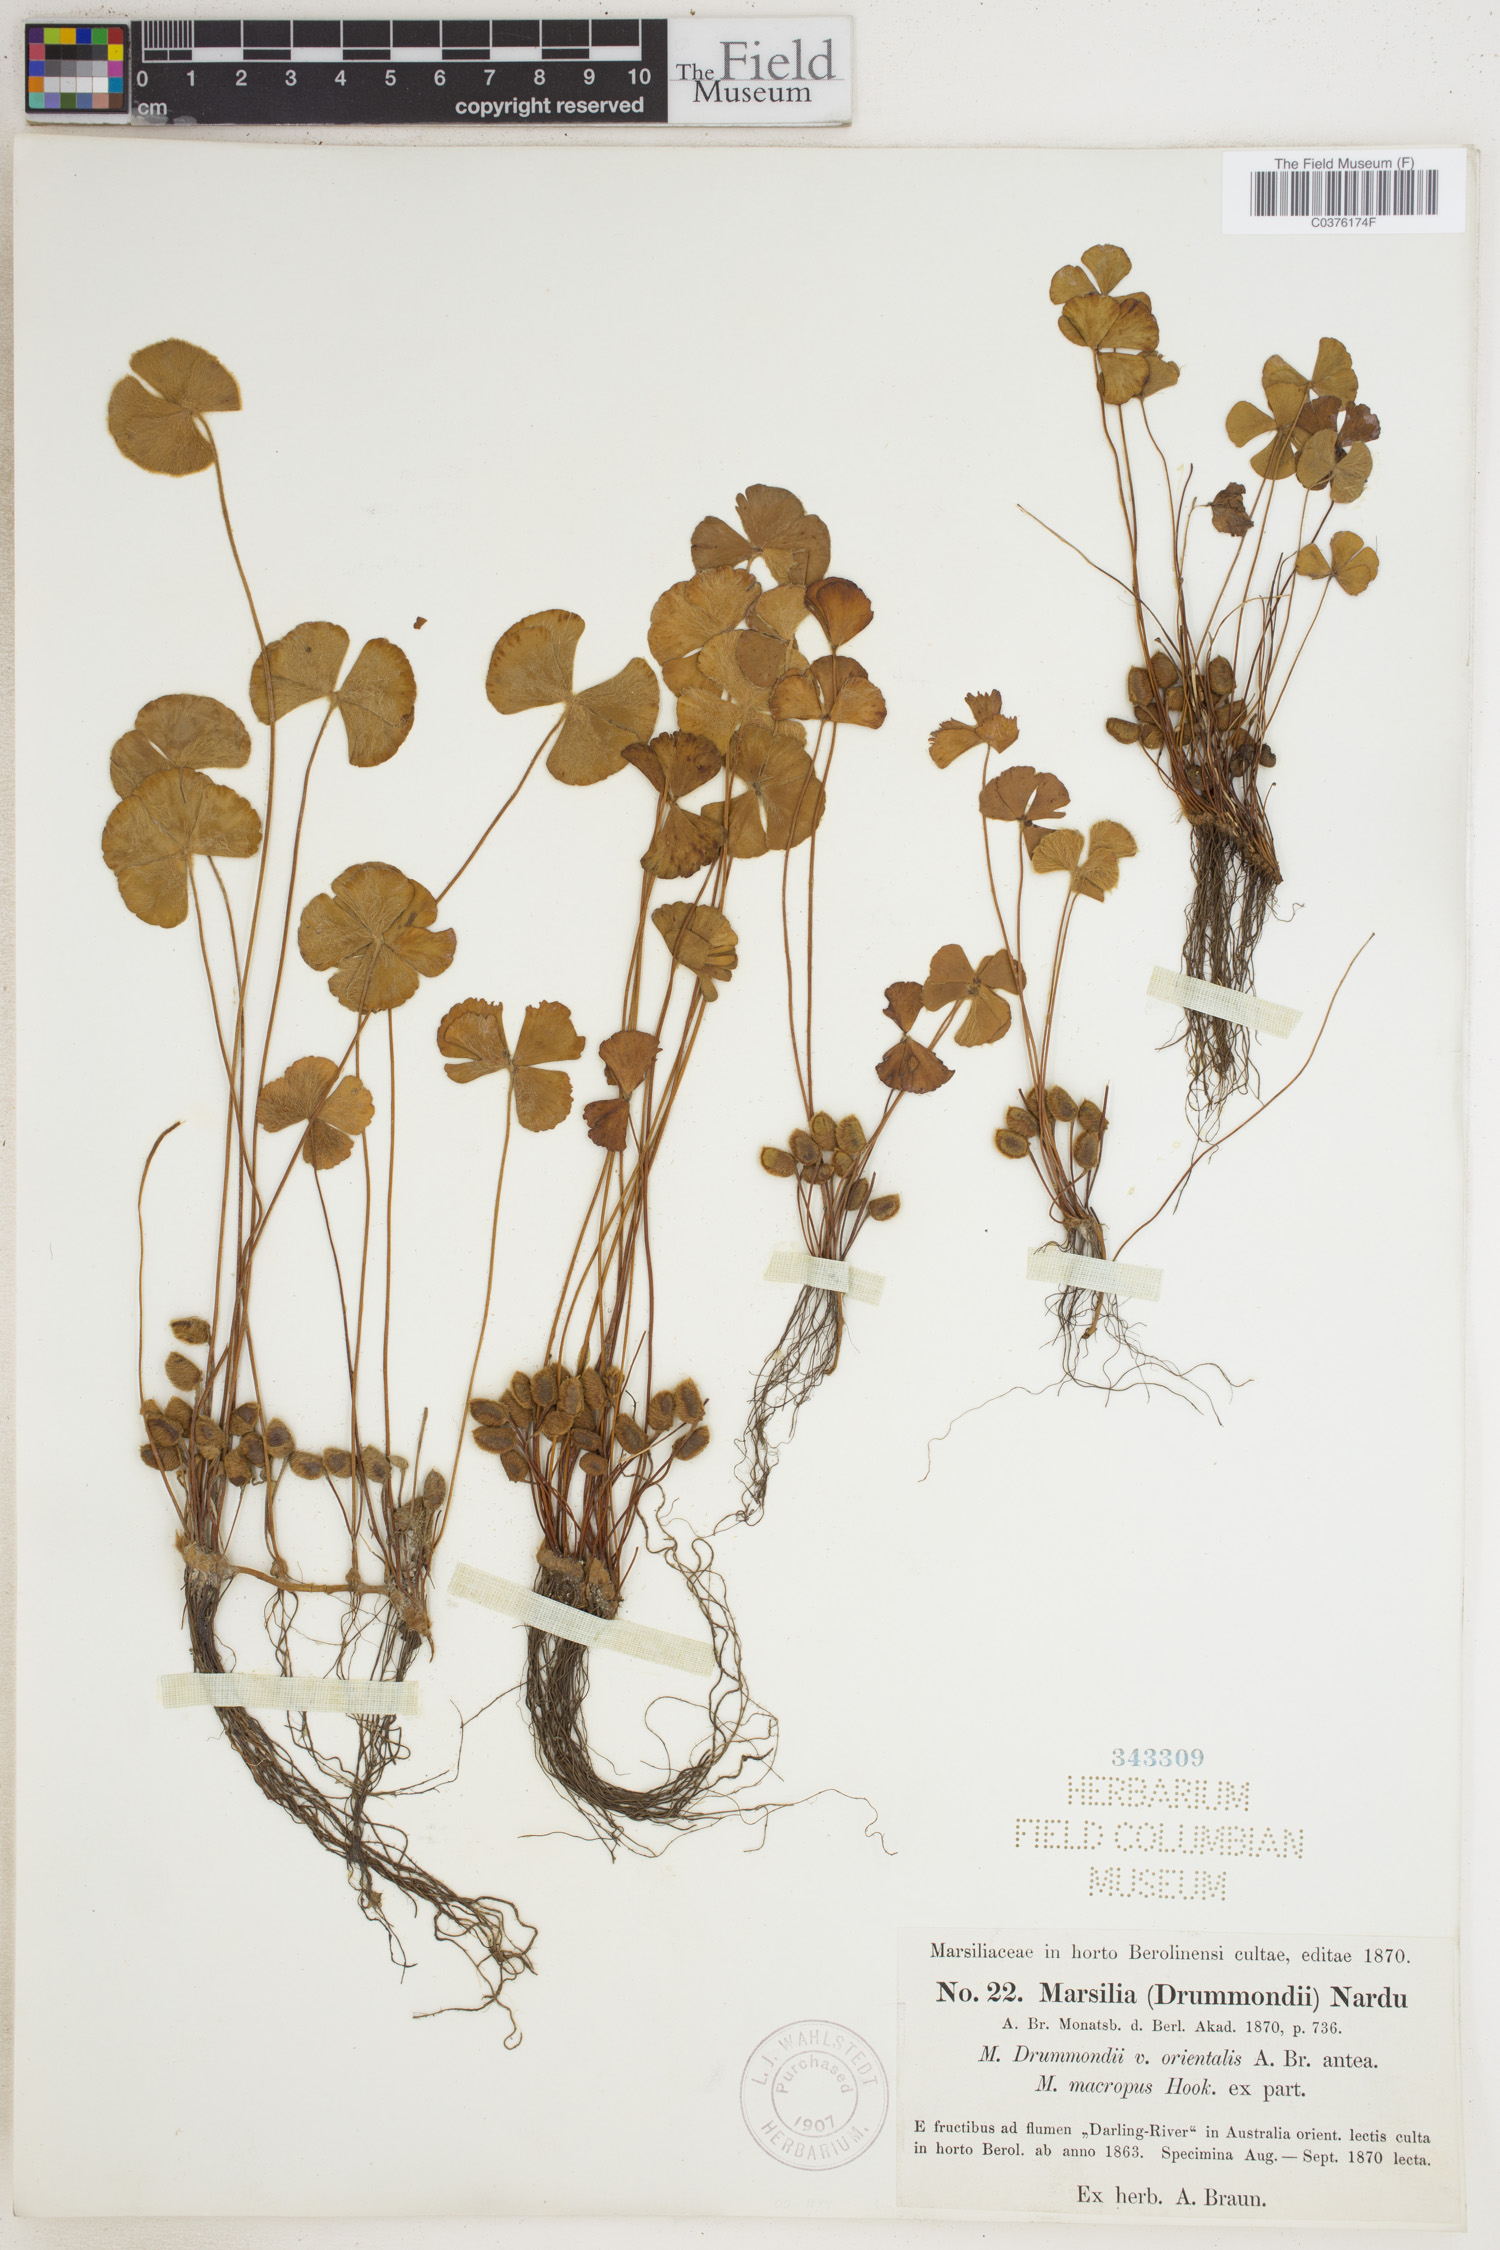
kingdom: Plantae
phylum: Tracheophyta
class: Polypodiopsida
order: Salviniales
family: Marsileaceae
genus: Marsilea
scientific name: Marsilea drummondii
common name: Nardoo
